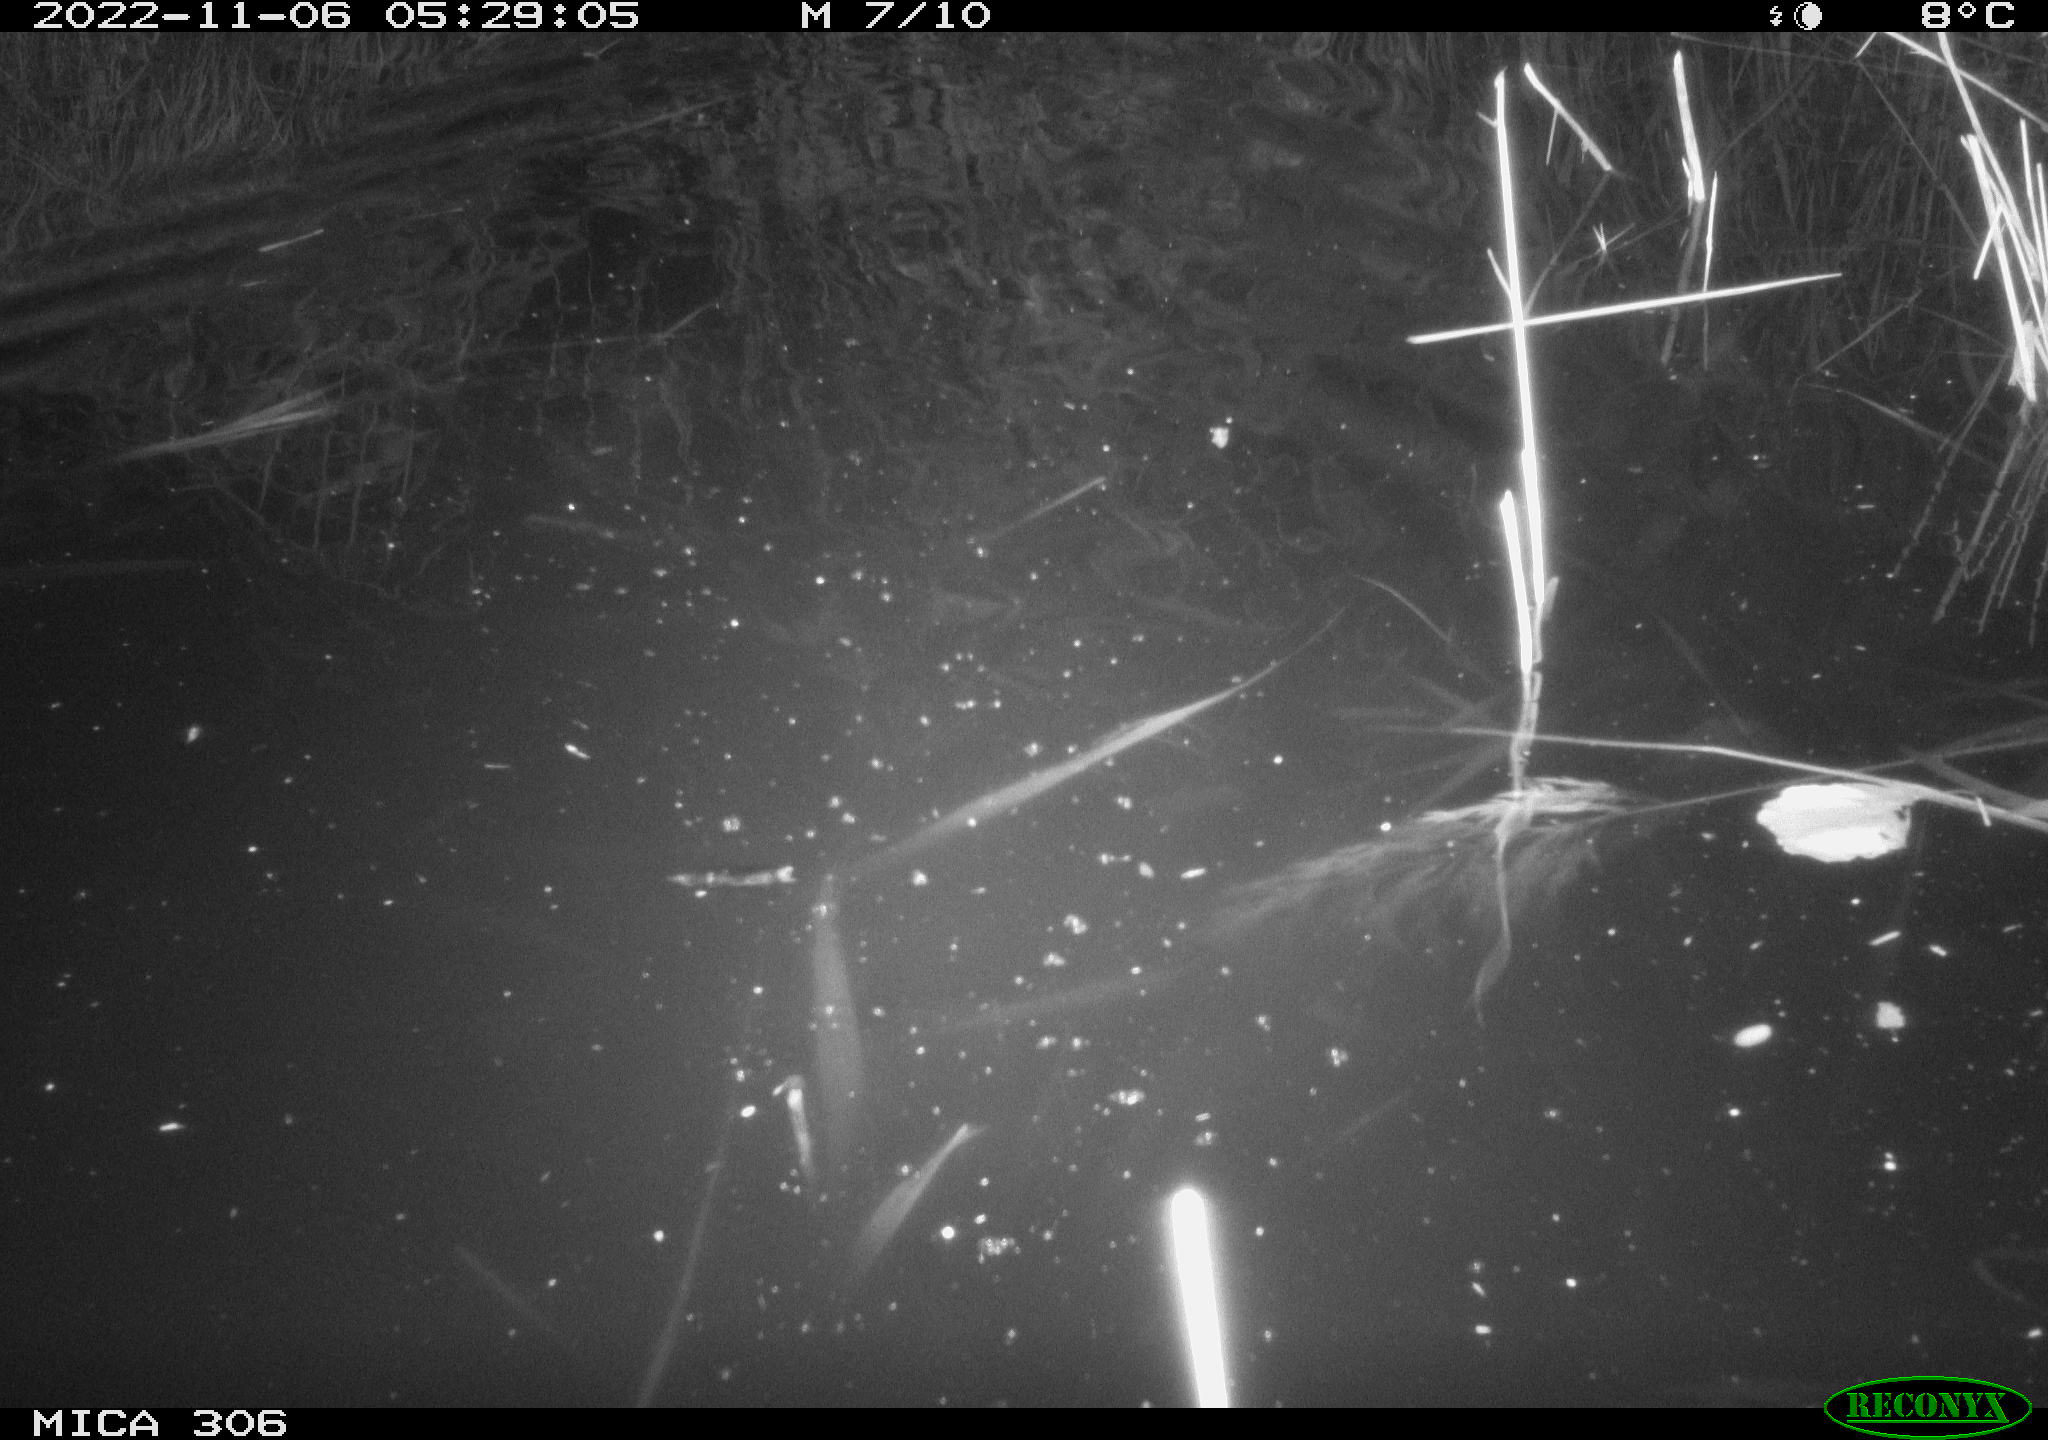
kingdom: Animalia
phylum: Chordata
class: Mammalia
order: Rodentia
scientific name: Rodentia
